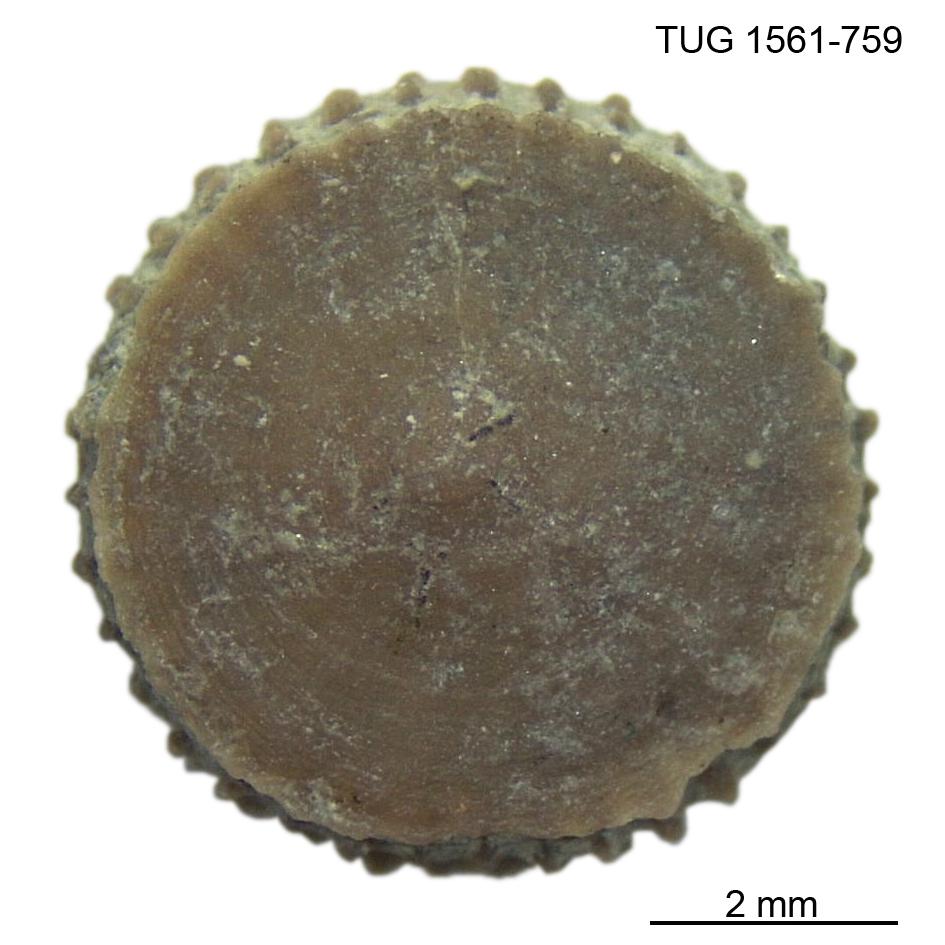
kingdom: Animalia
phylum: Cnidaria
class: Anthozoa
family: Palaeocyclidae
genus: Palaeocyclus
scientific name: Palaeocyclus Porpites porpita
